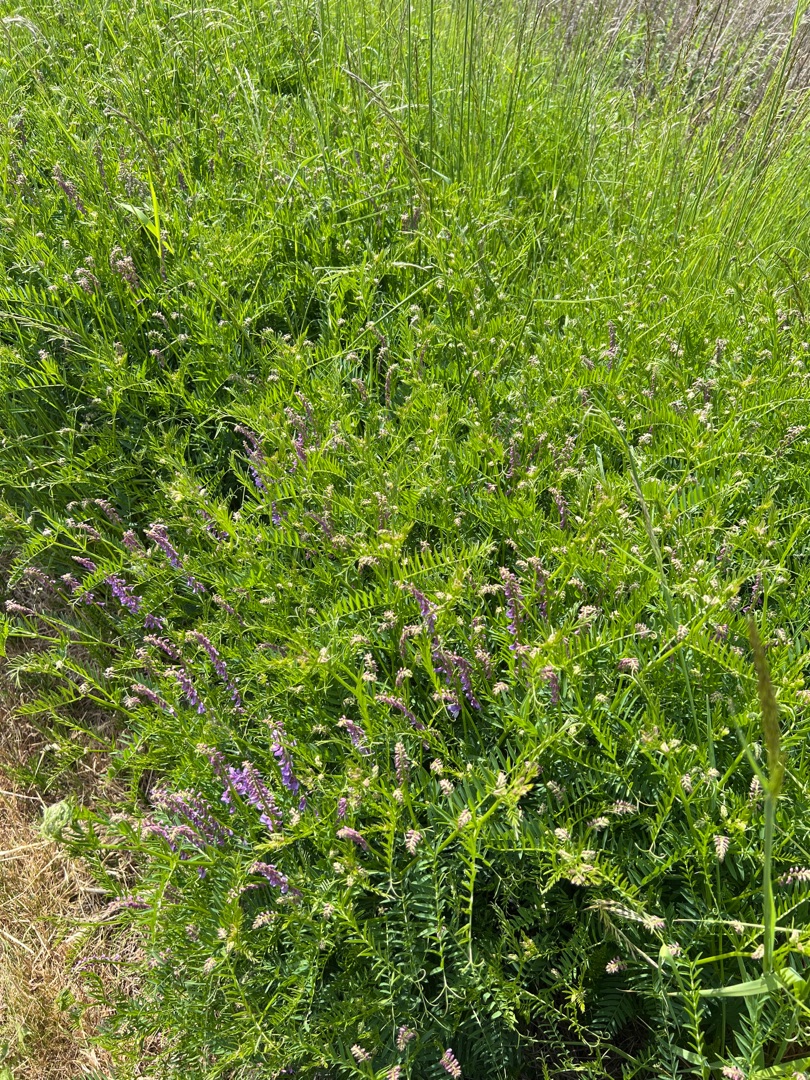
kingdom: Plantae
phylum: Tracheophyta
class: Magnoliopsida
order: Fabales
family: Fabaceae
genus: Vicia
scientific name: Vicia cracca
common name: Muse-vikke
